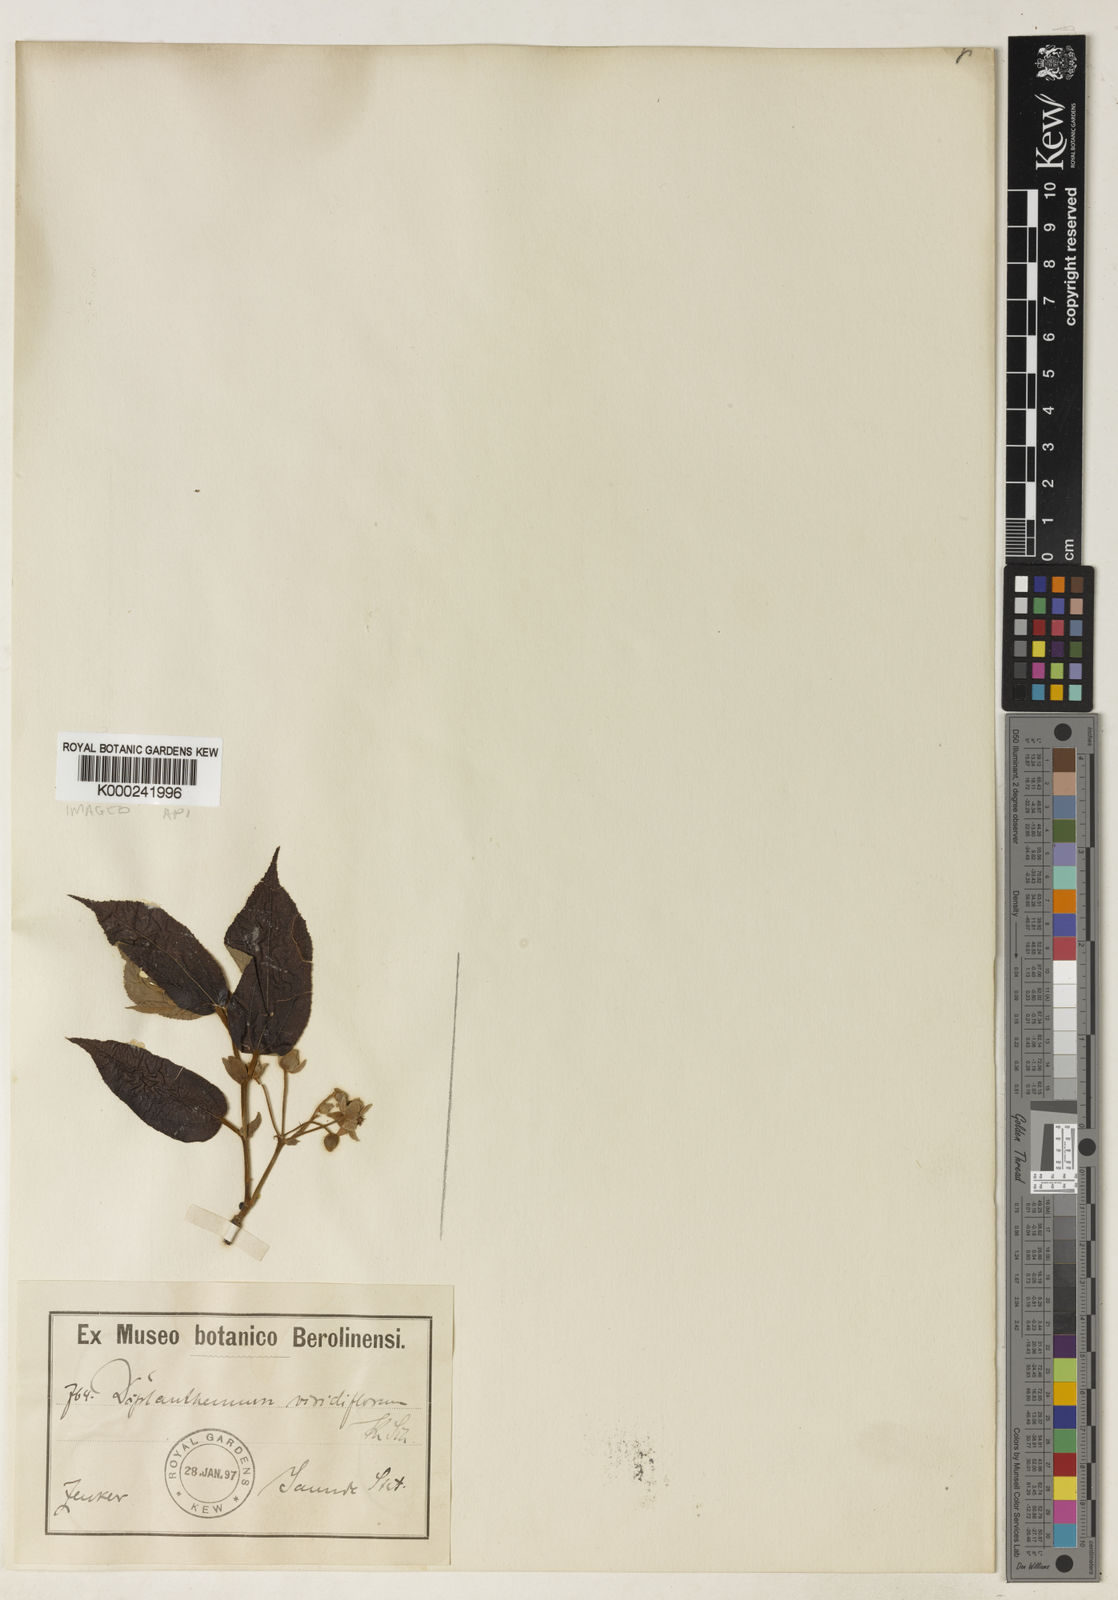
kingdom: Plantae
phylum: Tracheophyta
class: Magnoliopsida
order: Malvales
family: Malvaceae
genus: Duboscia
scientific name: Duboscia viridiflora
